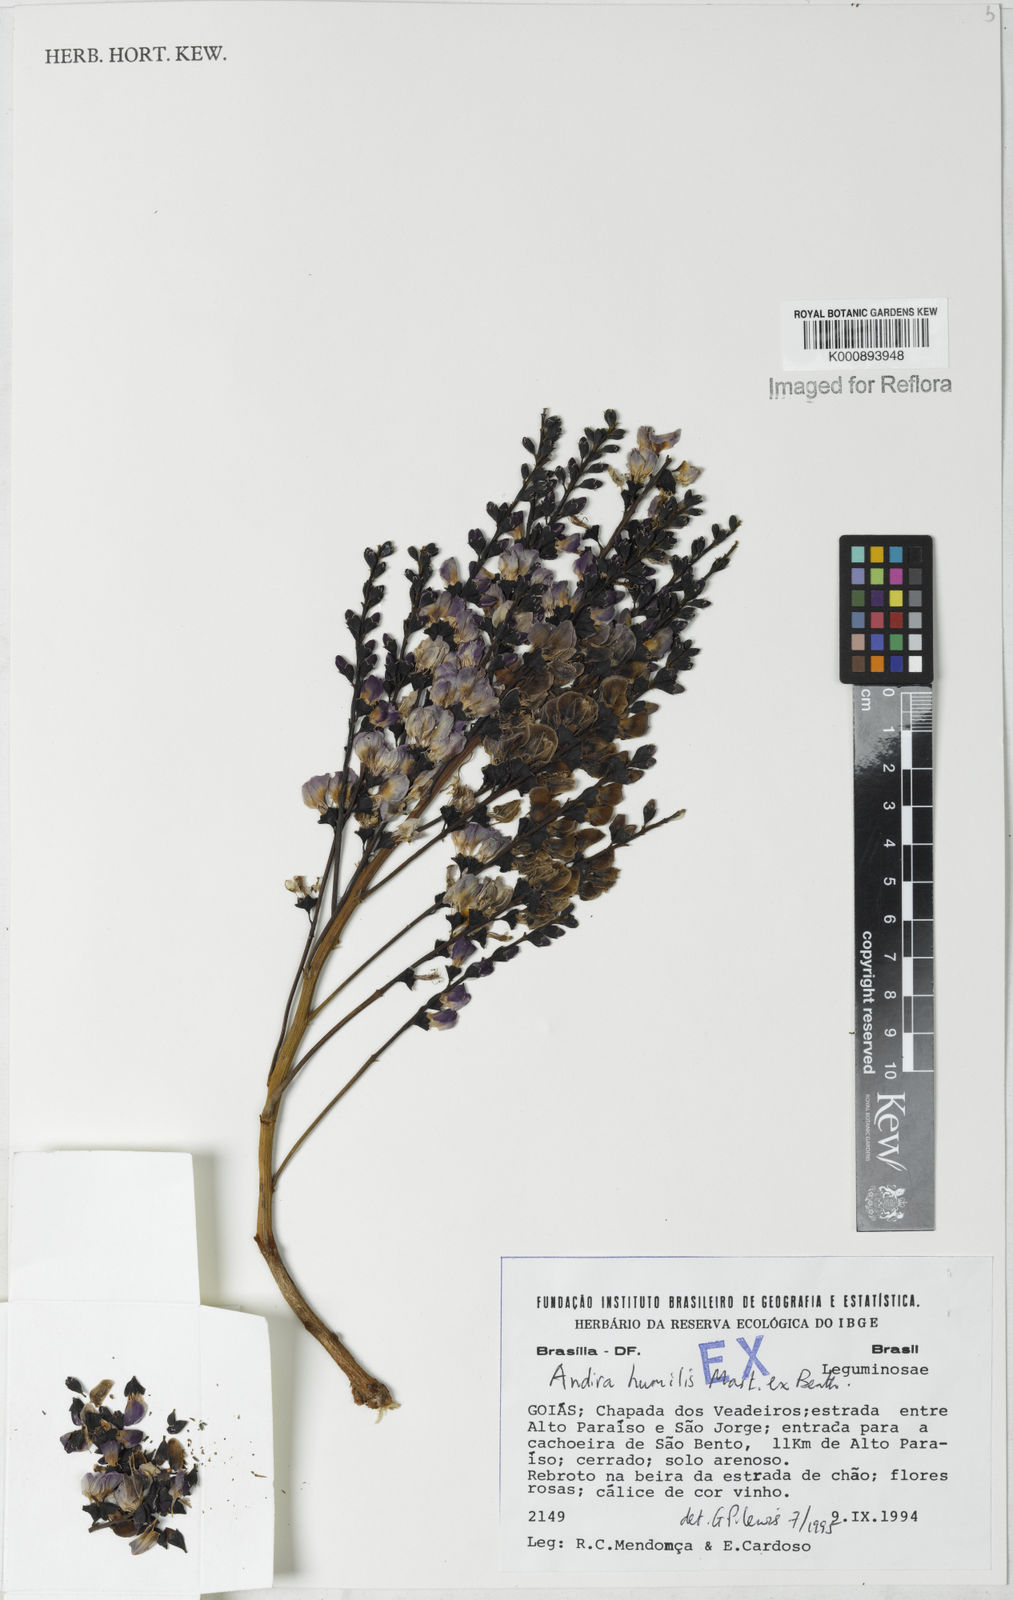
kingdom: Plantae
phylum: Tracheophyta
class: Magnoliopsida
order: Fabales
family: Fabaceae
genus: Andira
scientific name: Andira
